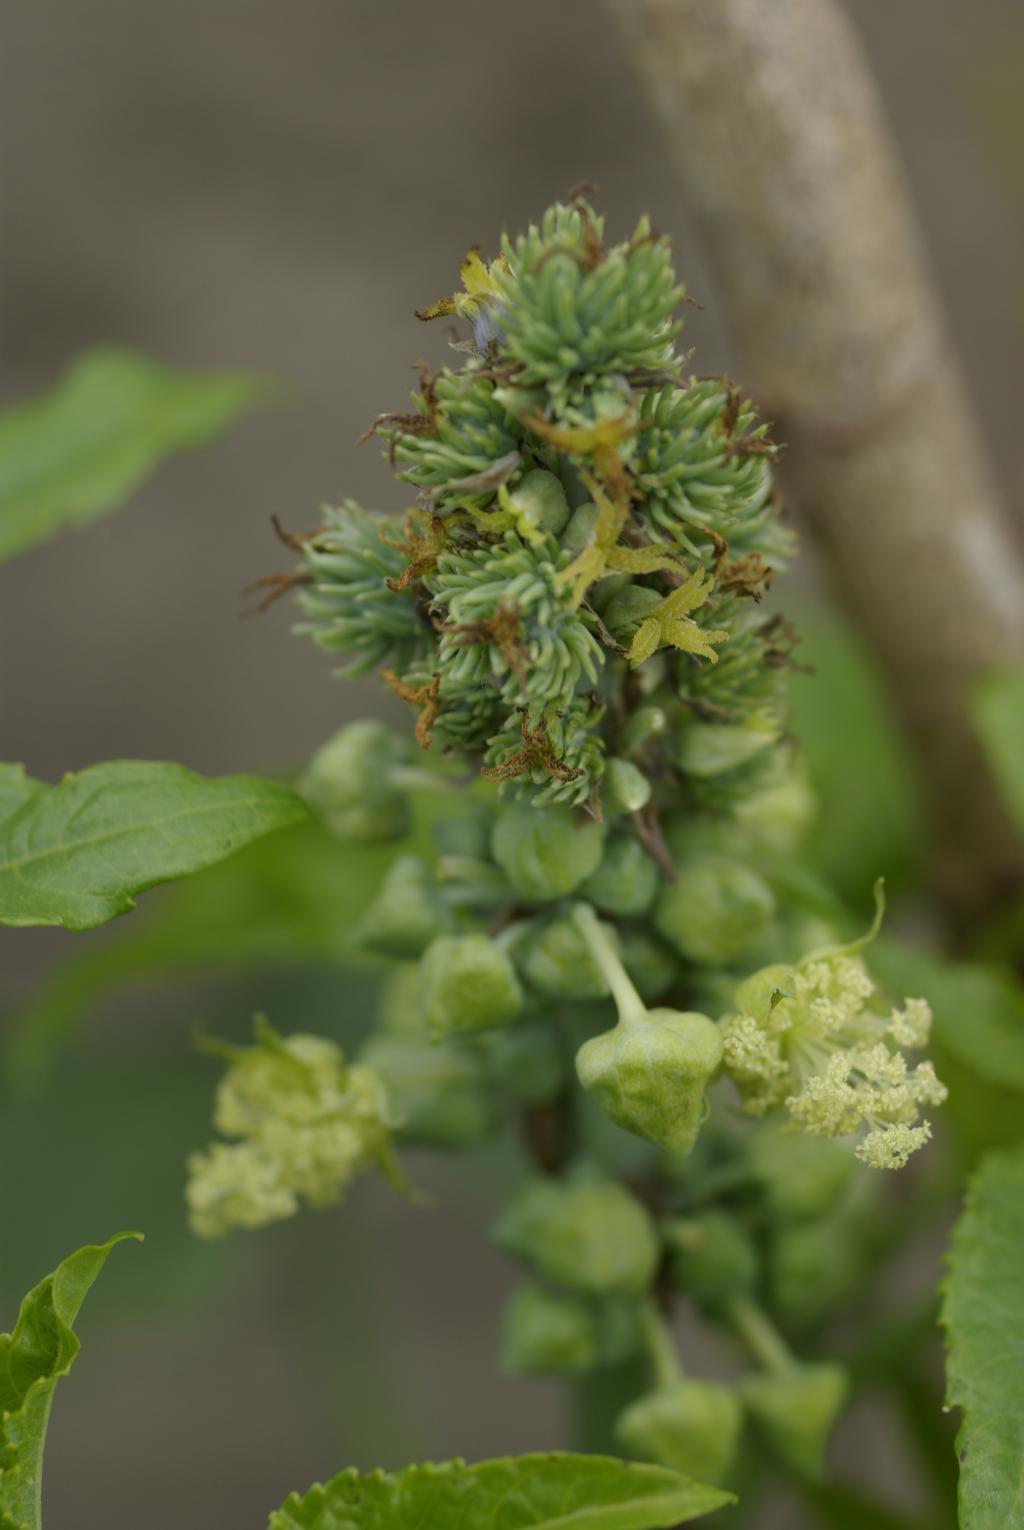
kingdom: Plantae
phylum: Tracheophyta
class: Magnoliopsida
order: Malpighiales
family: Euphorbiaceae
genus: Ricinus
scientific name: Ricinus communis
